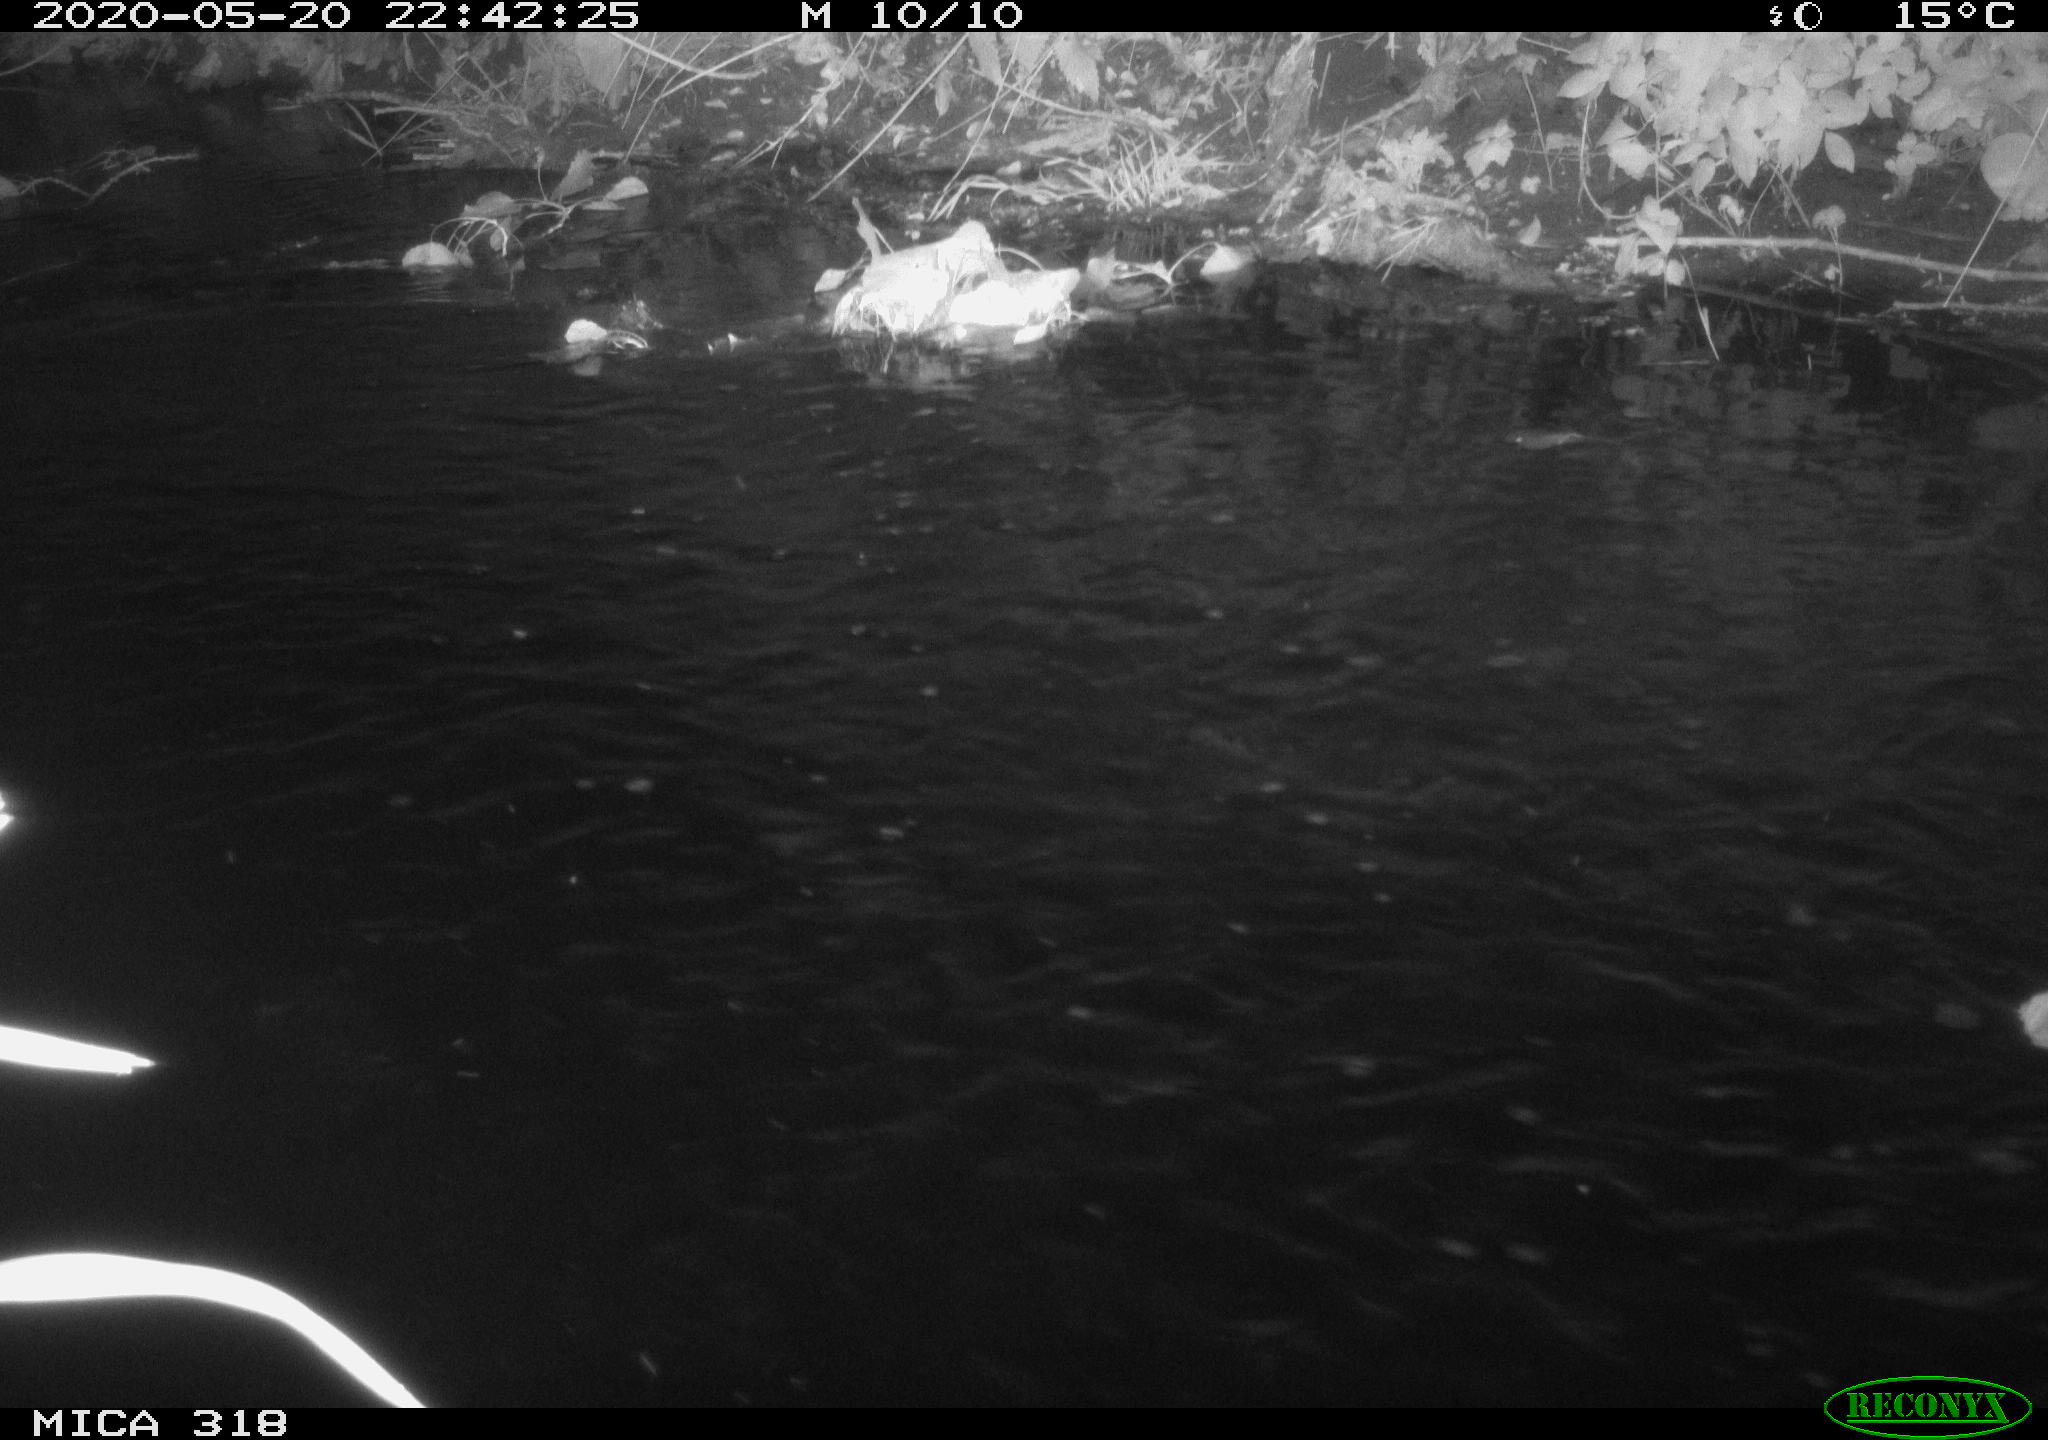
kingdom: Animalia
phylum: Chordata
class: Aves
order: Pelecaniformes
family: Ardeidae
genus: Ardea
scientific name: Ardea cinerea
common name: Grey heron
